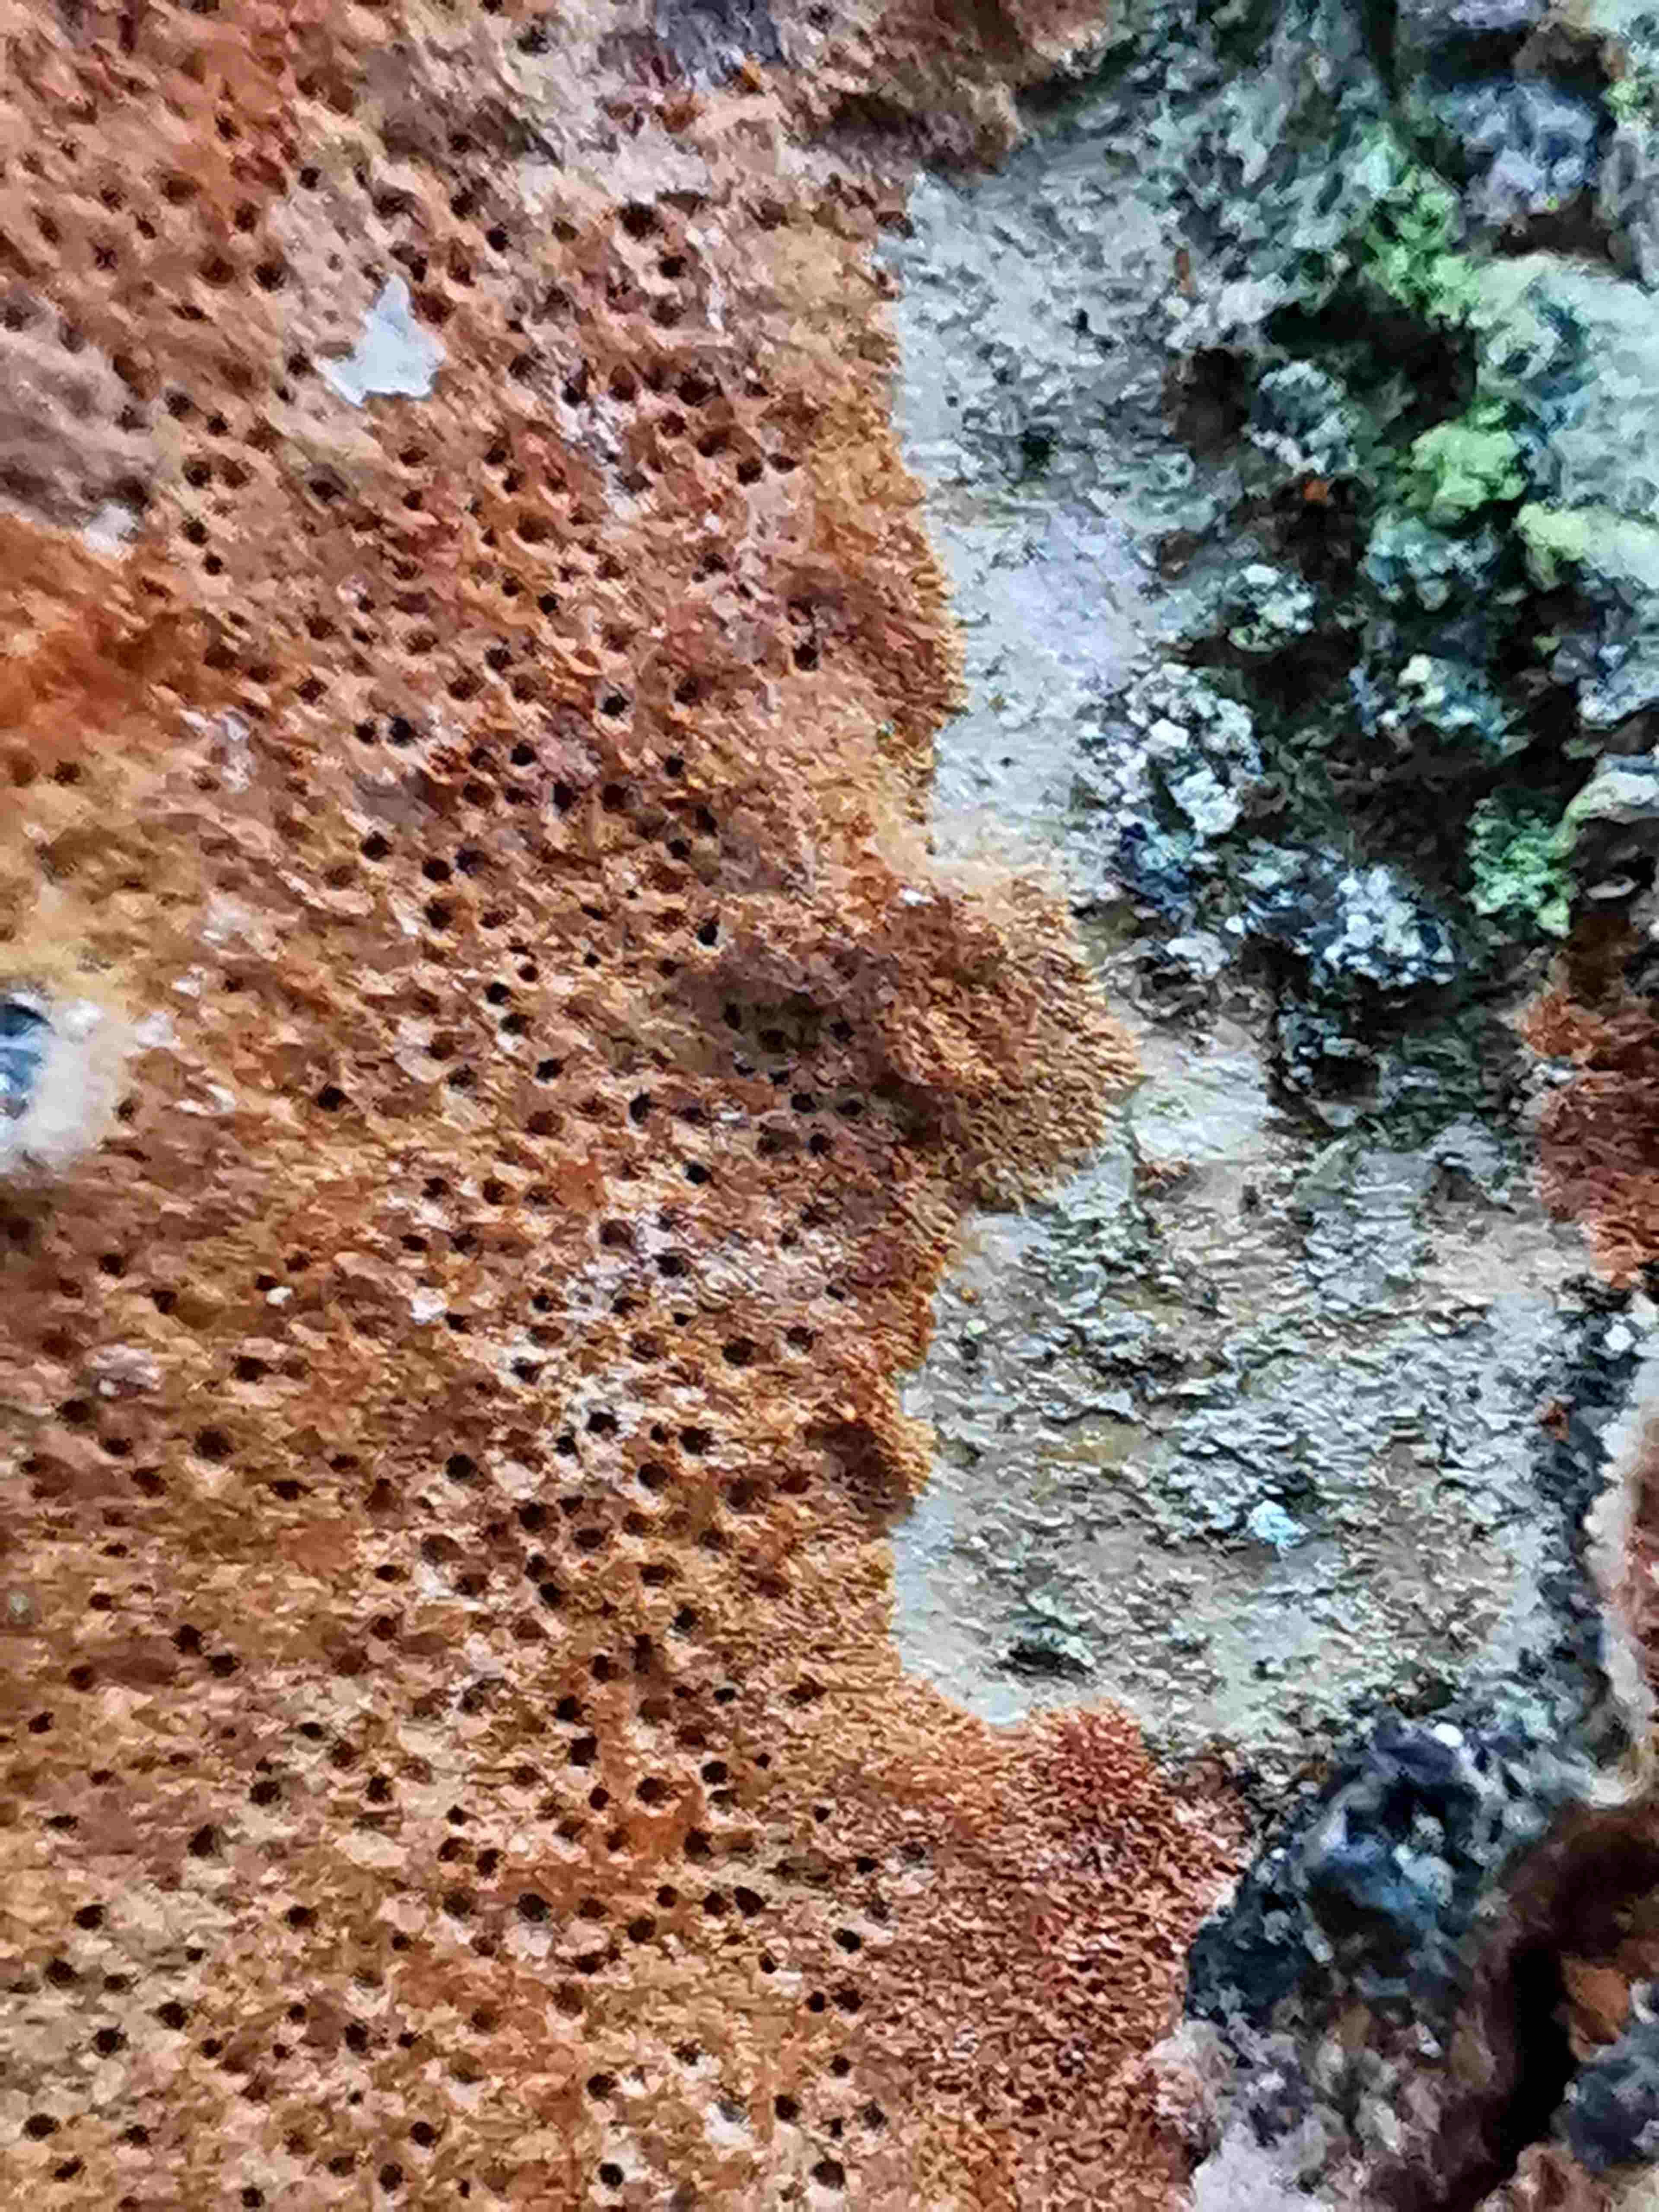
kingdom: Fungi
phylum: Basidiomycota
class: Agaricomycetes
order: Hymenochaetales
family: Hymenochaetaceae
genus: Fuscoporia
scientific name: Fuscoporia ferrea
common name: skorpe-ildporesvamp
